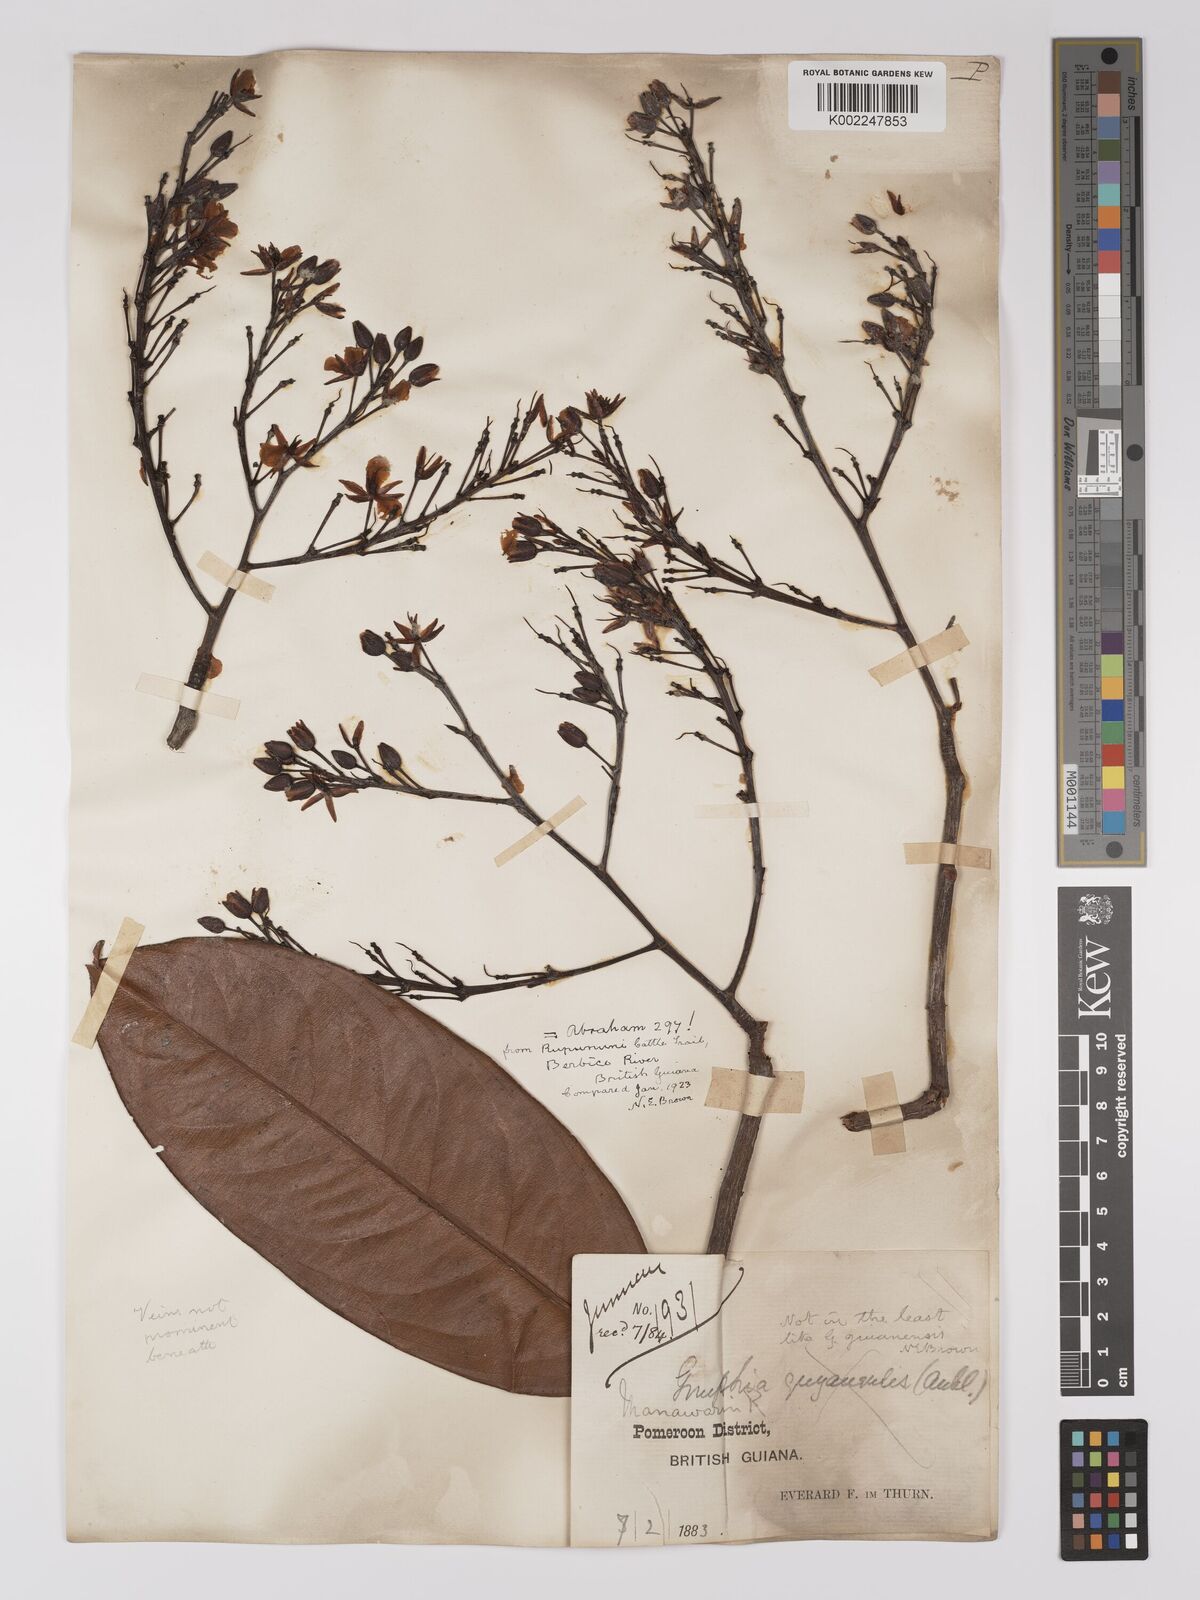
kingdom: Plantae
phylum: Tracheophyta
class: Magnoliopsida
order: Malpighiales
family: Ochnaceae
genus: Ouratea
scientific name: Ouratea
